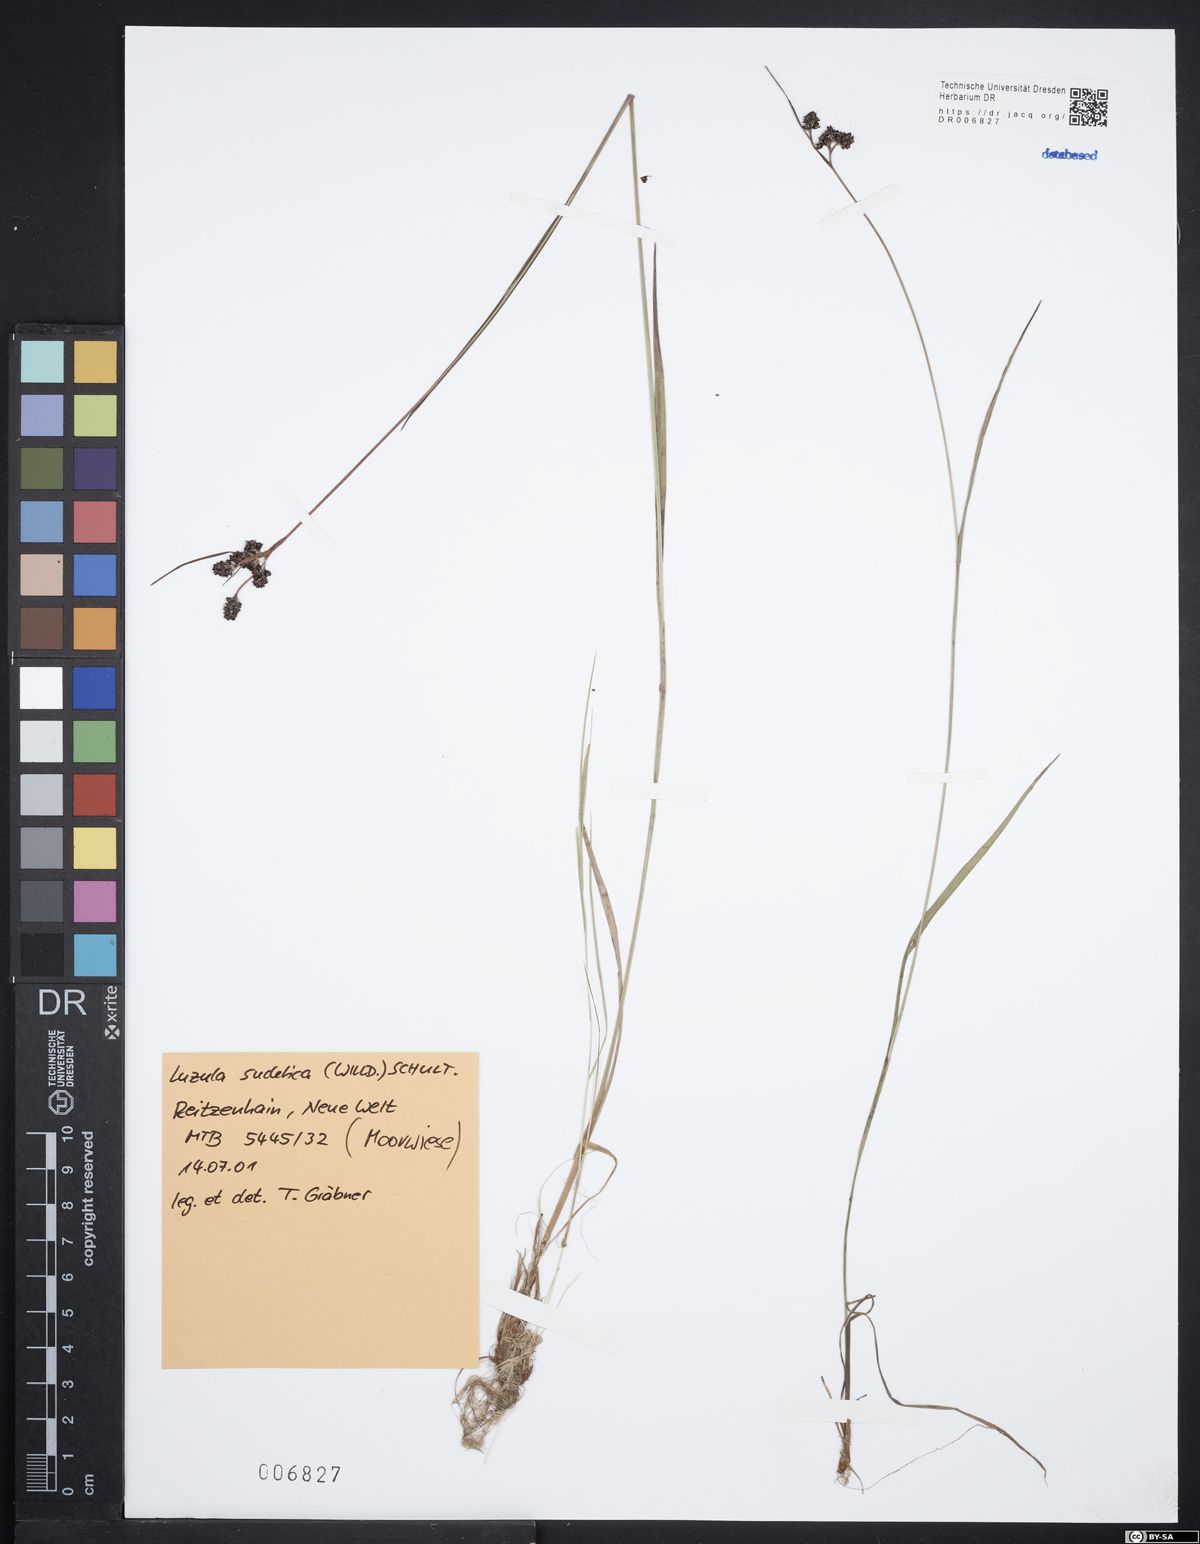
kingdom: Plantae
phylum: Tracheophyta
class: Liliopsida
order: Poales
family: Juncaceae
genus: Luzula
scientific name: Luzula sudetica
